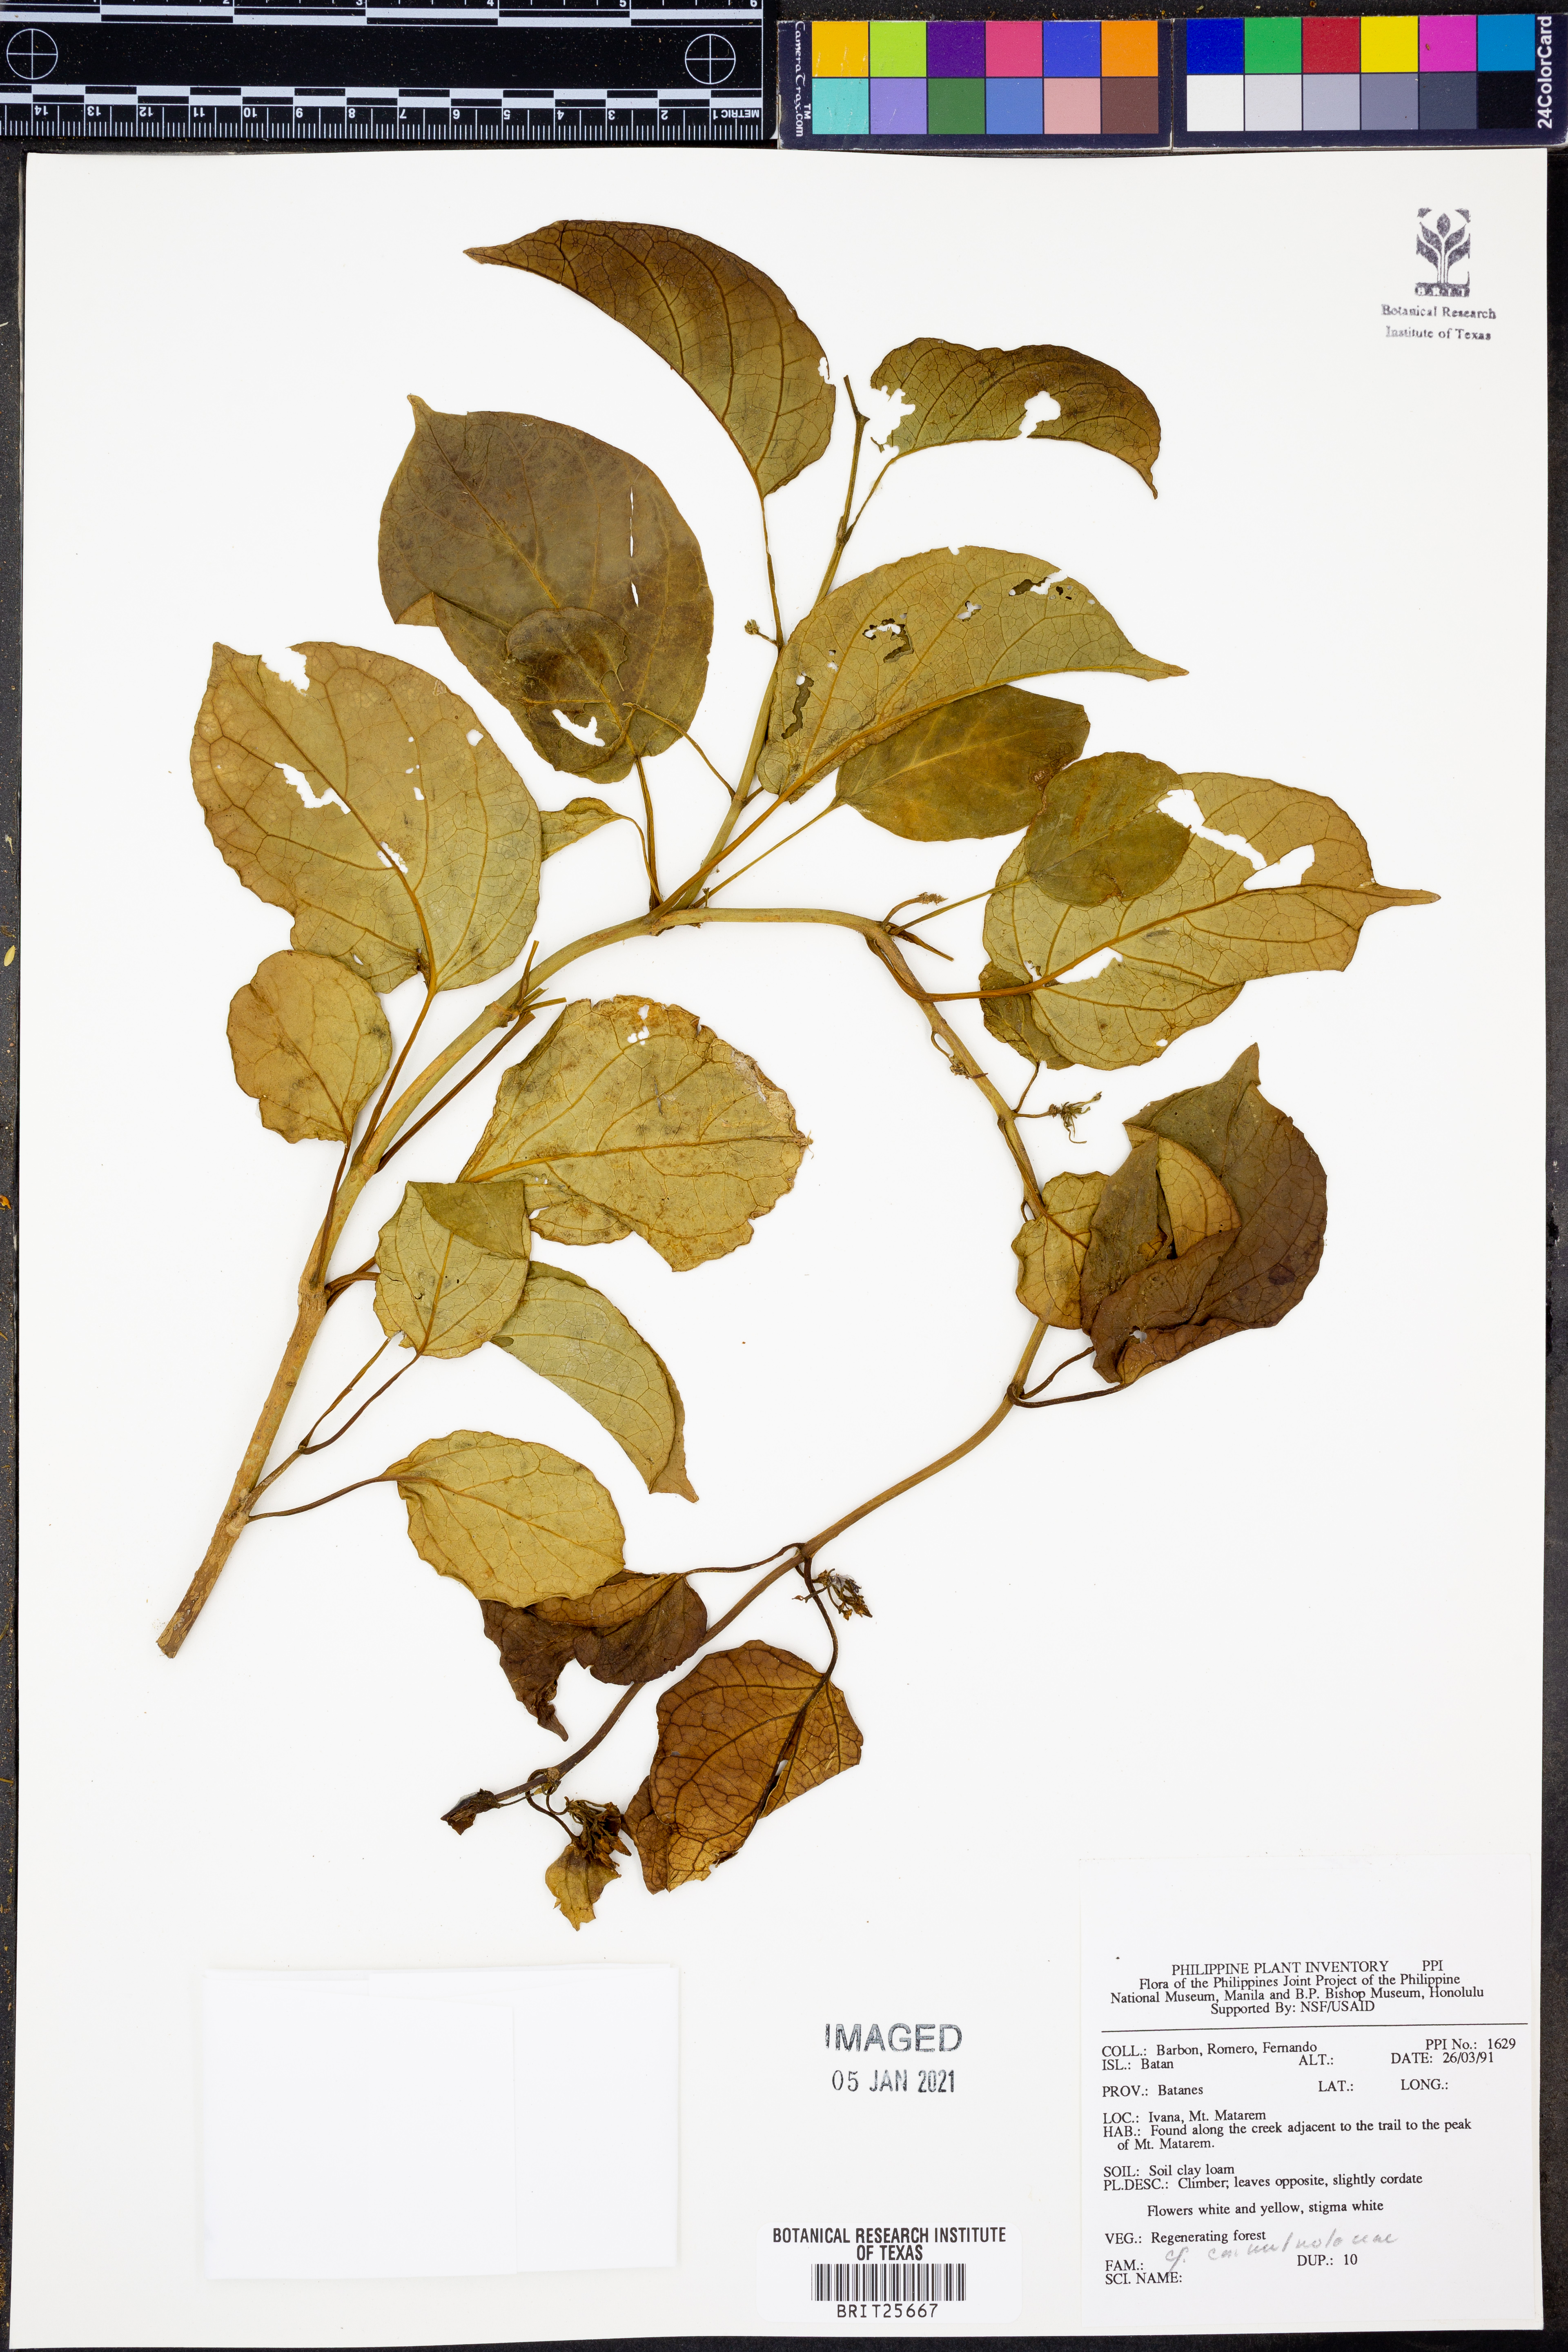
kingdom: Plantae
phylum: Tracheophyta
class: Magnoliopsida
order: Solanales
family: Convolvulaceae
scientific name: Convolvulaceae
